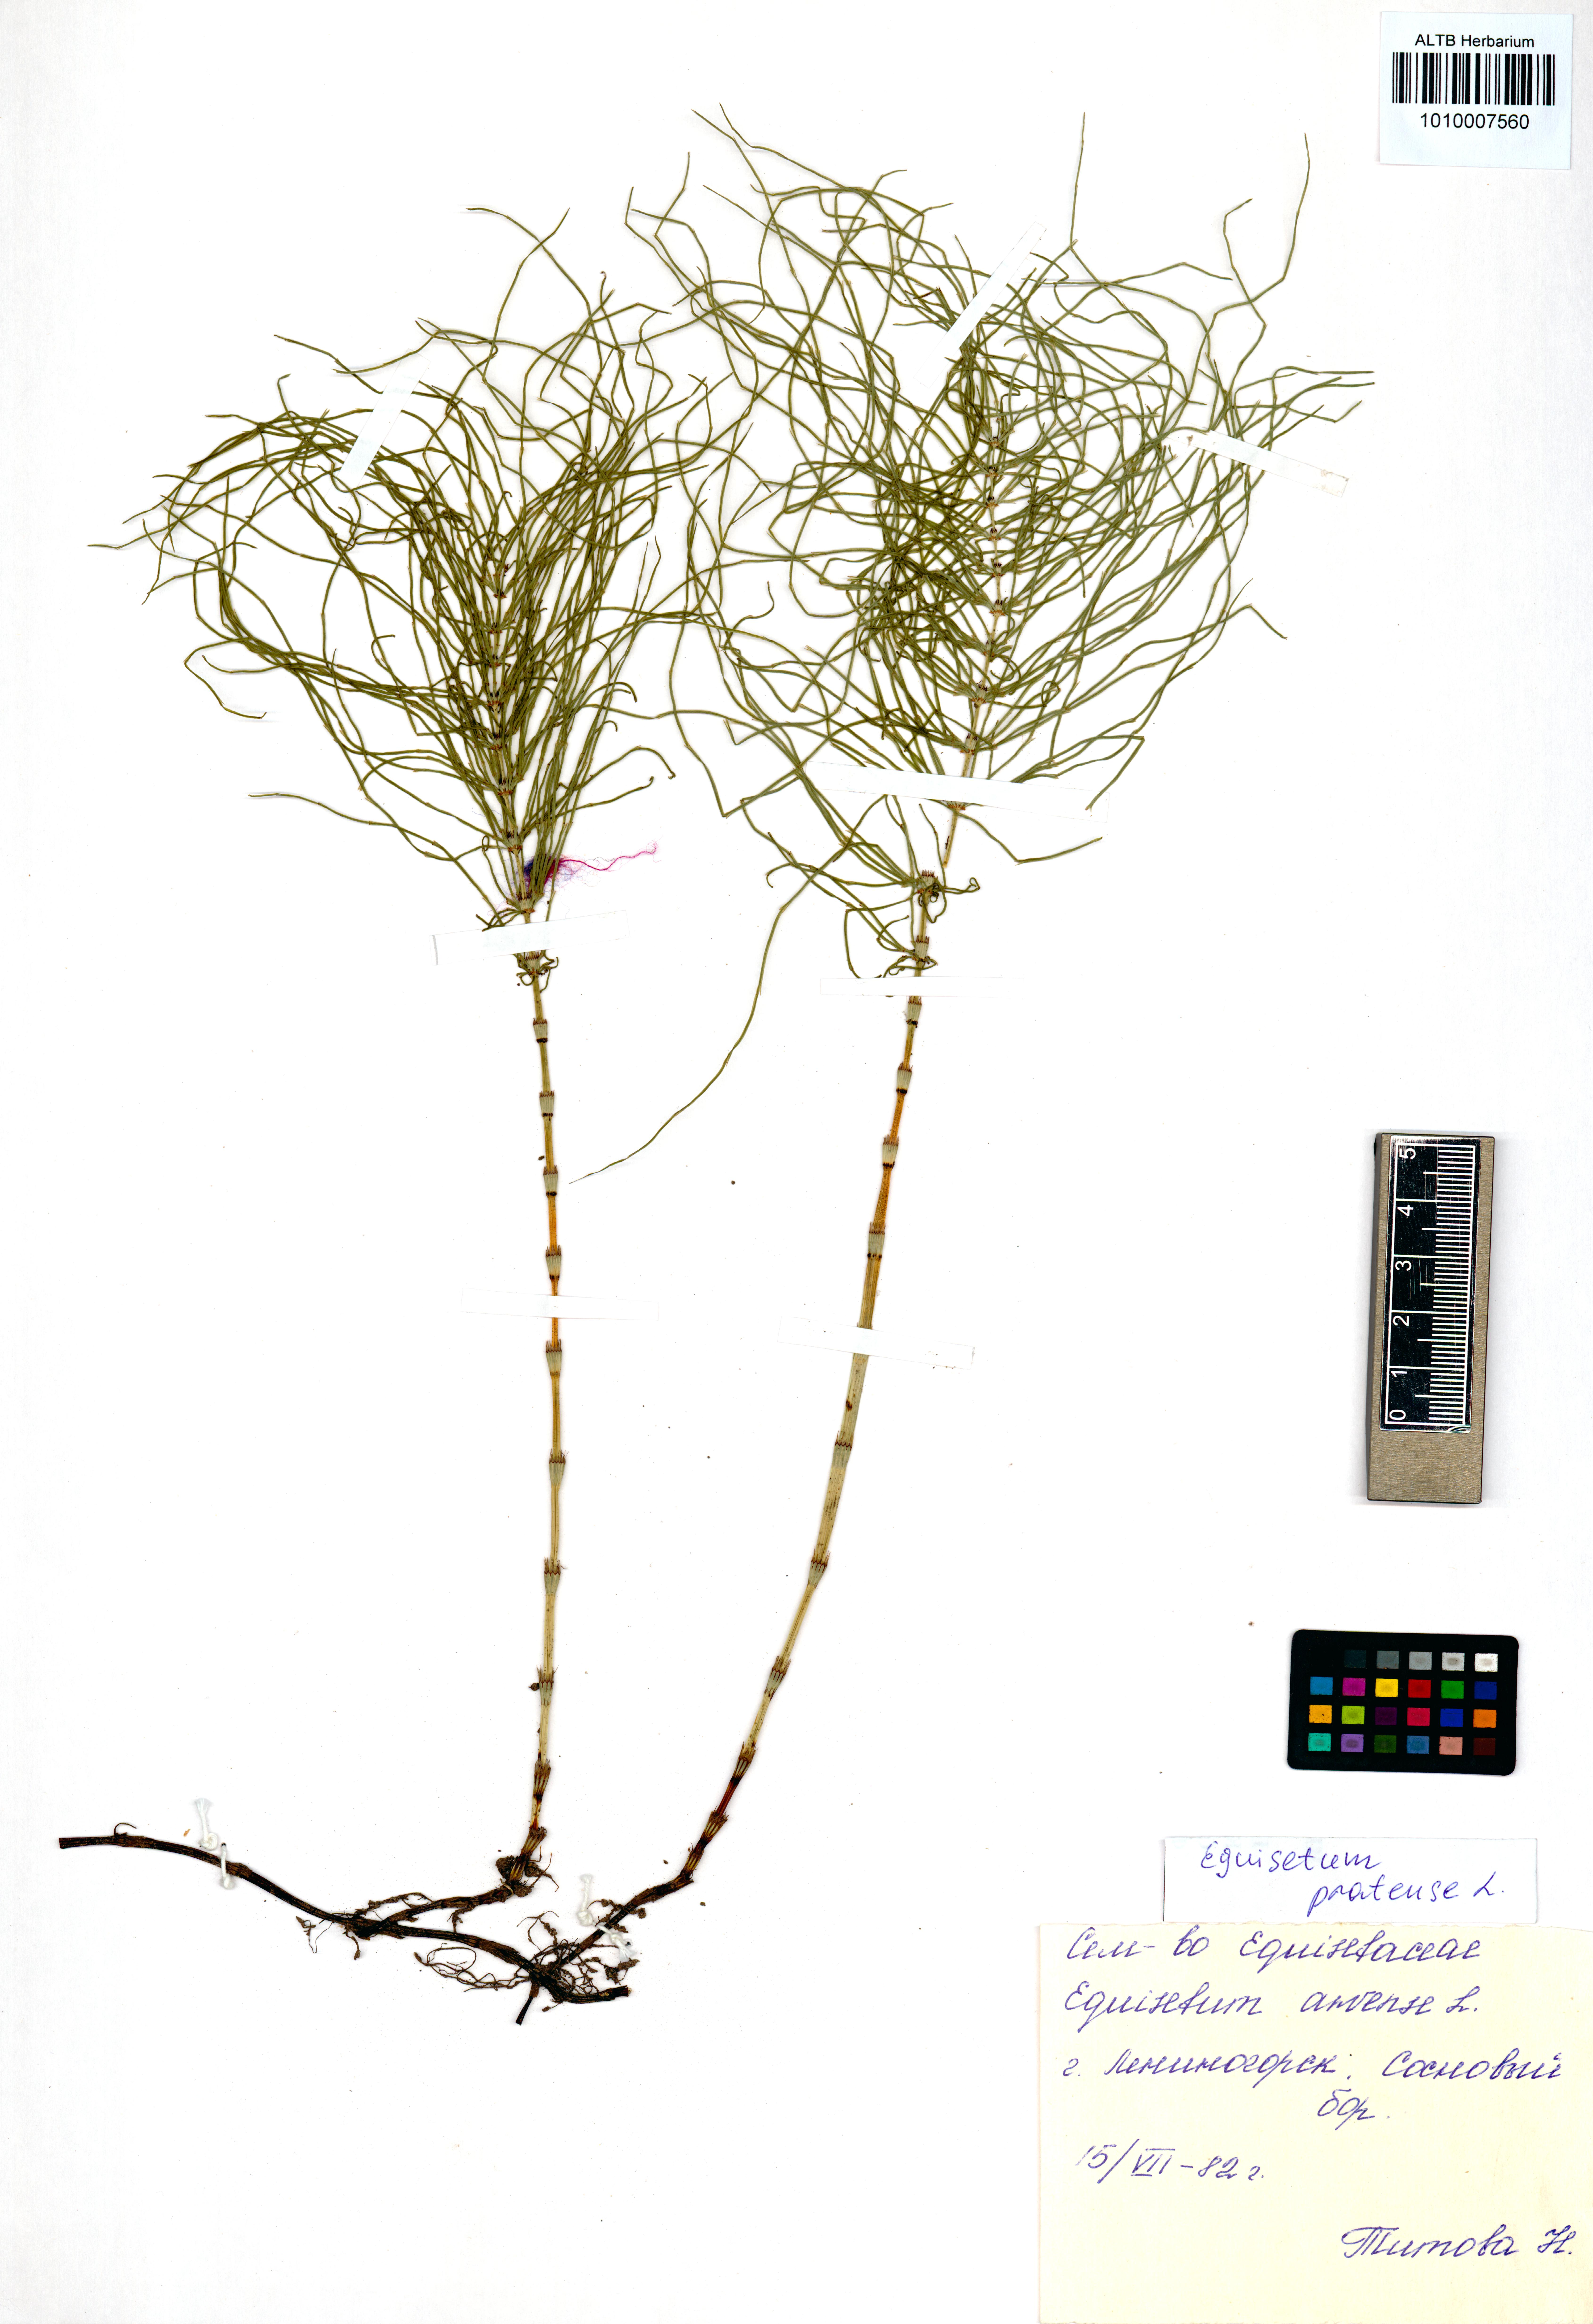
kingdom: Plantae
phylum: Tracheophyta
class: Polypodiopsida
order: Equisetales
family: Equisetaceae
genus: Equisetum
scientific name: Equisetum arvense
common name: Field horsetail
